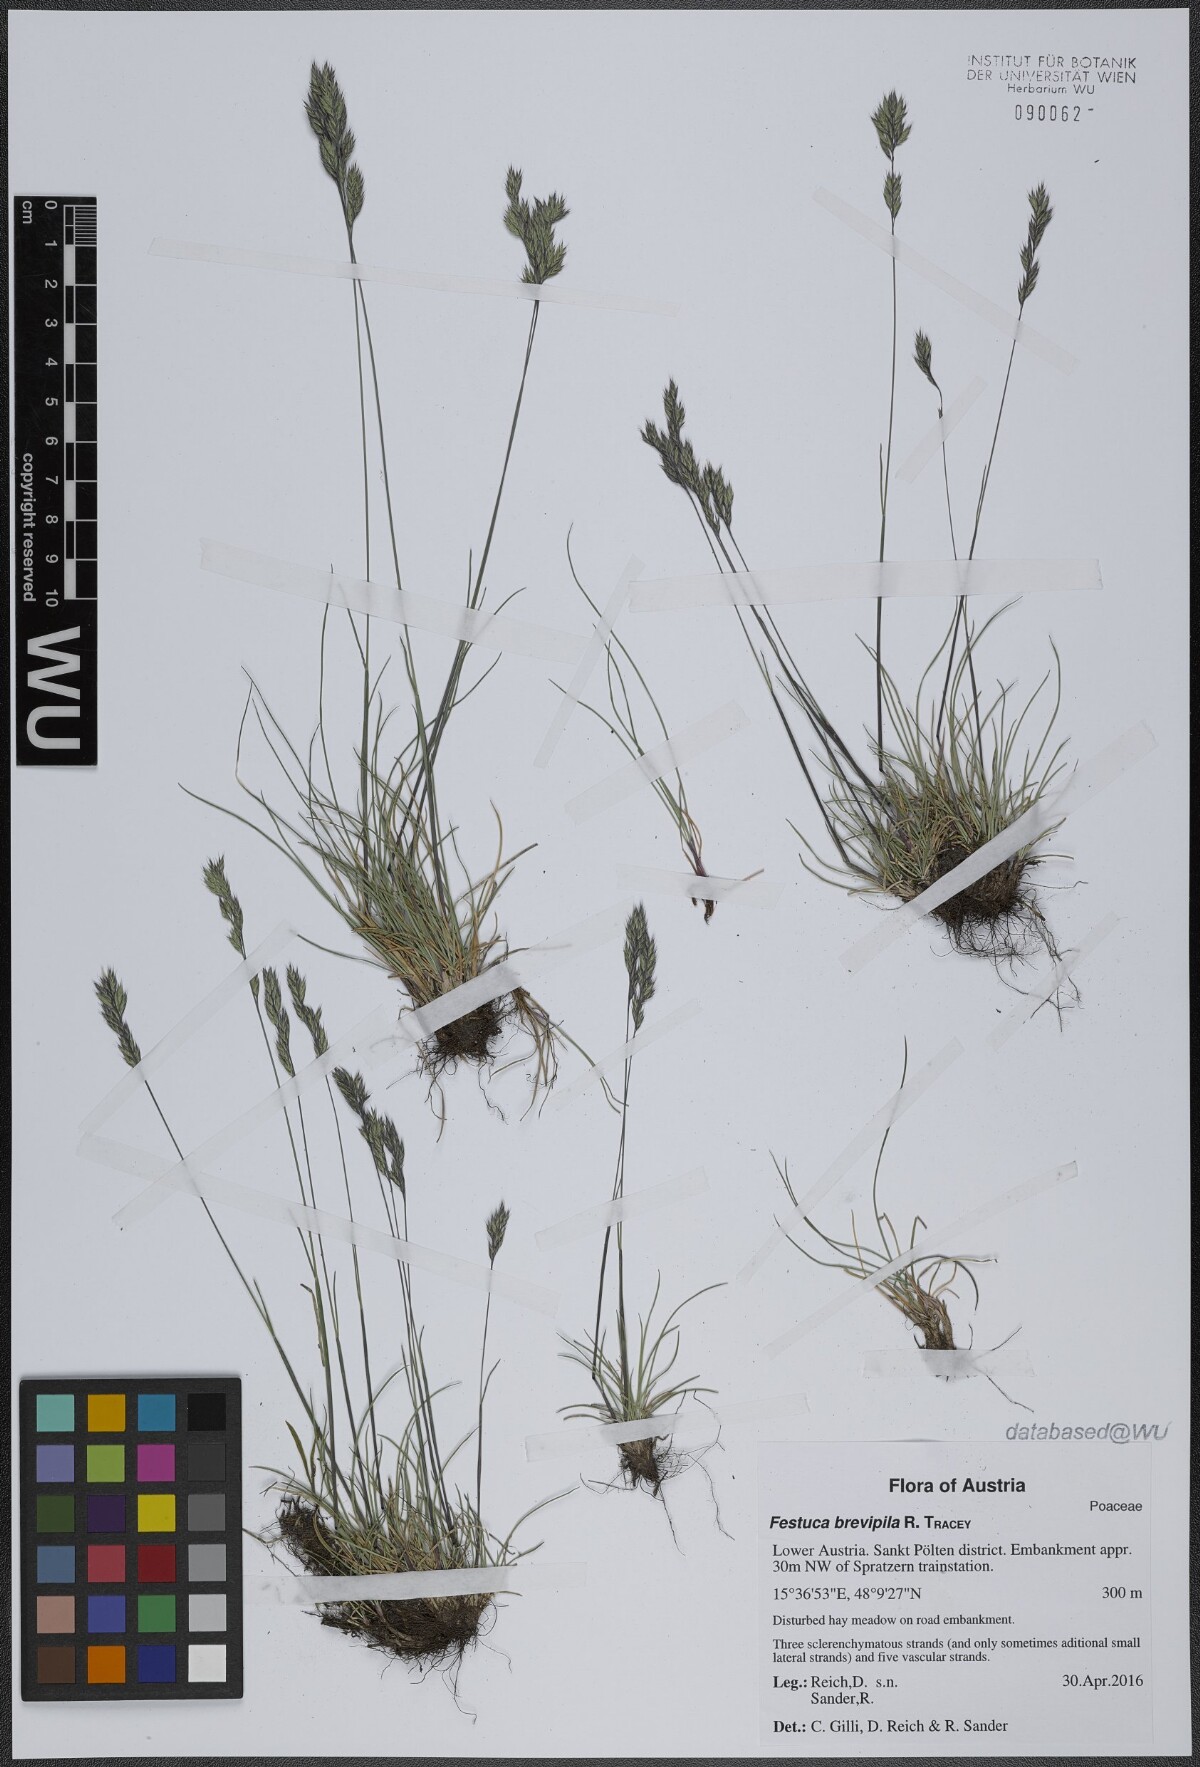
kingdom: Plantae
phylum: Tracheophyta
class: Liliopsida
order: Poales
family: Poaceae
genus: Festuca
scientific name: Festuca trachyphylla
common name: Hard fescue
